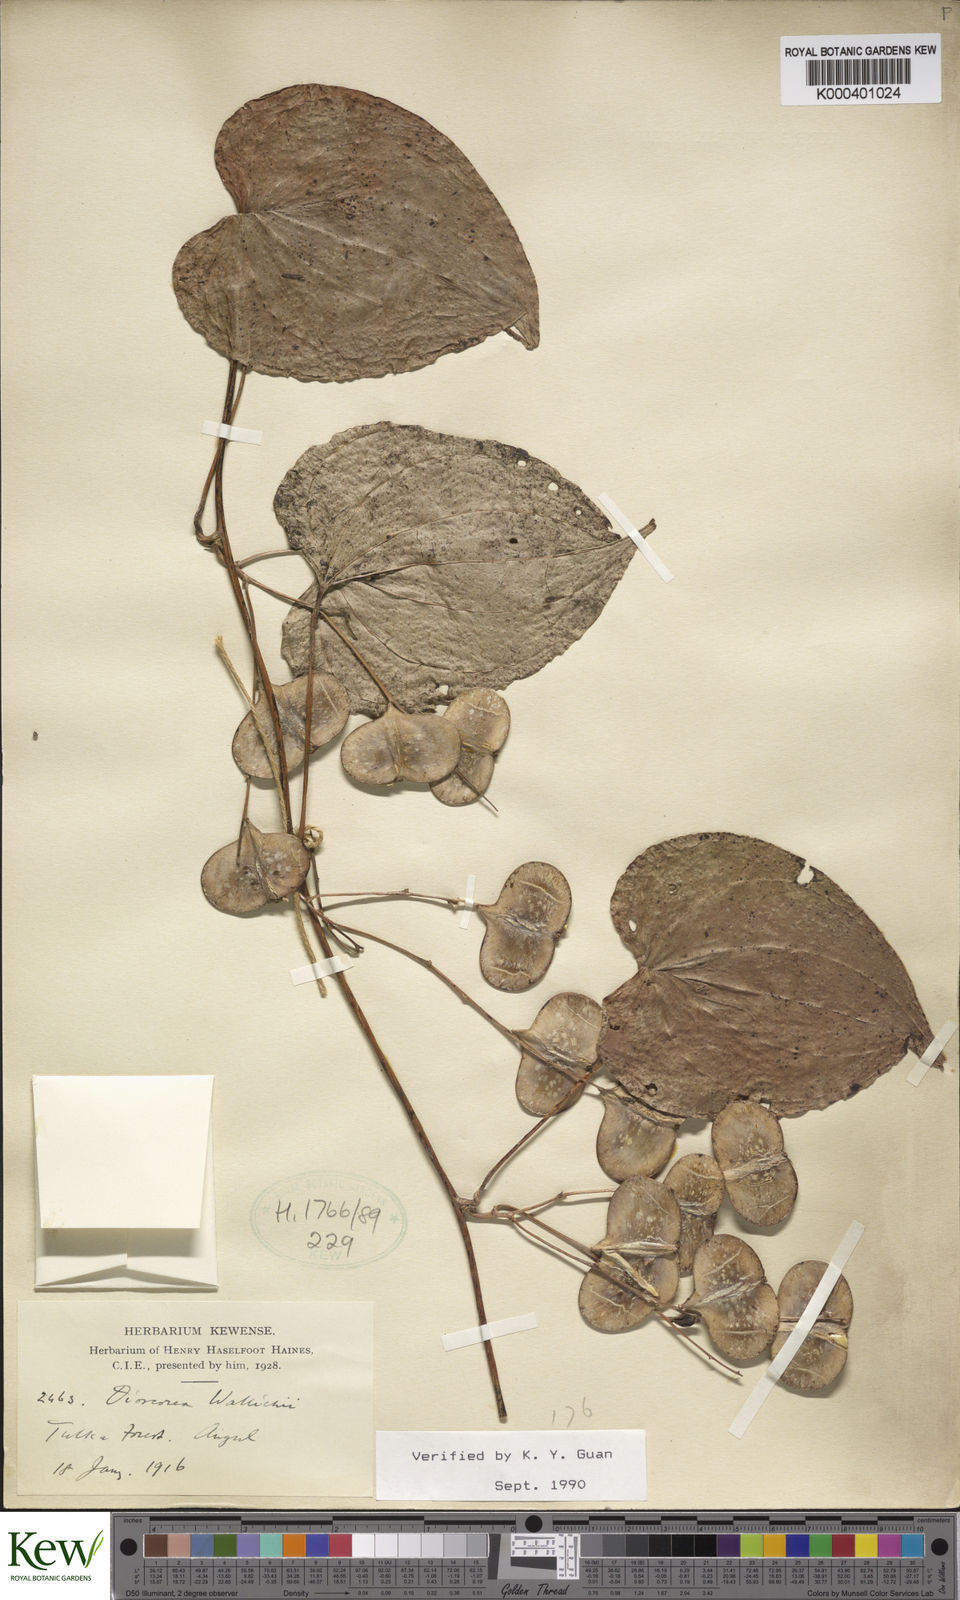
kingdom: Plantae
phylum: Tracheophyta
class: Liliopsida
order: Dioscoreales
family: Dioscoreaceae
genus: Dioscorea
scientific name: Dioscorea wallichii
